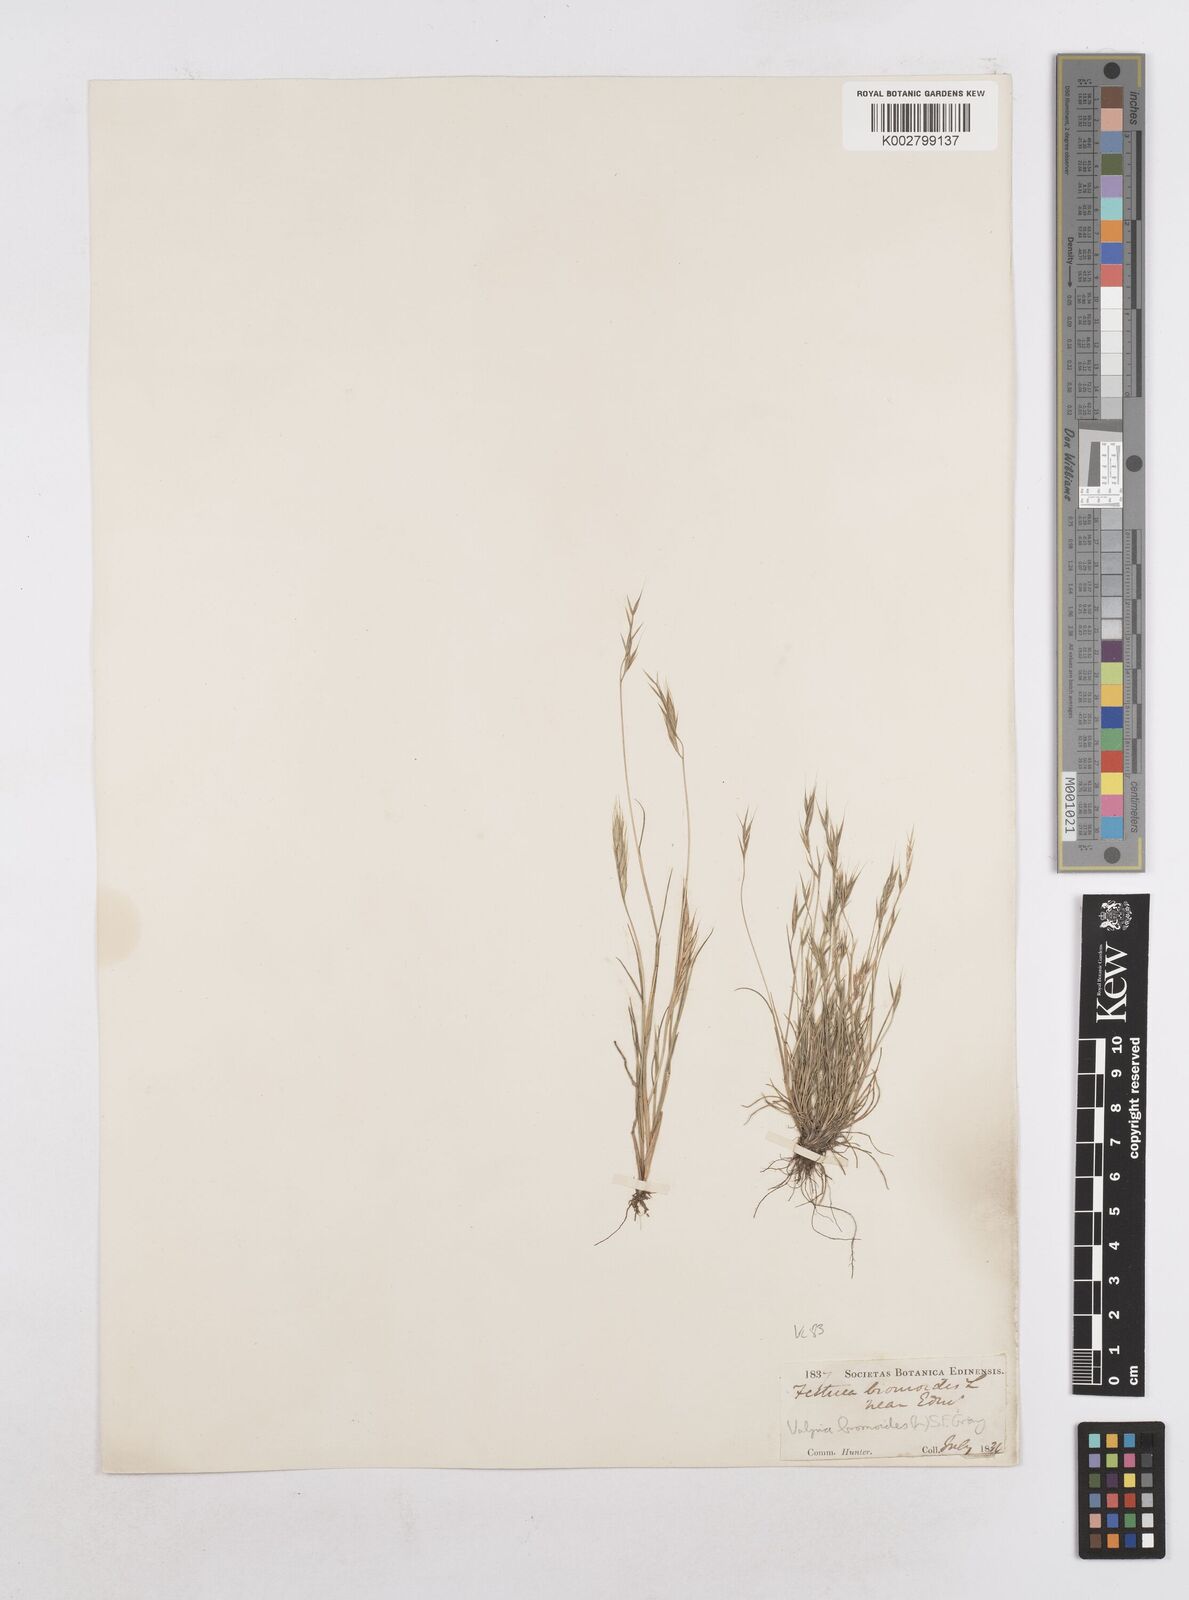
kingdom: Plantae
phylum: Tracheophyta
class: Liliopsida
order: Poales
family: Poaceae
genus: Festuca
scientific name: Festuca bromoides
